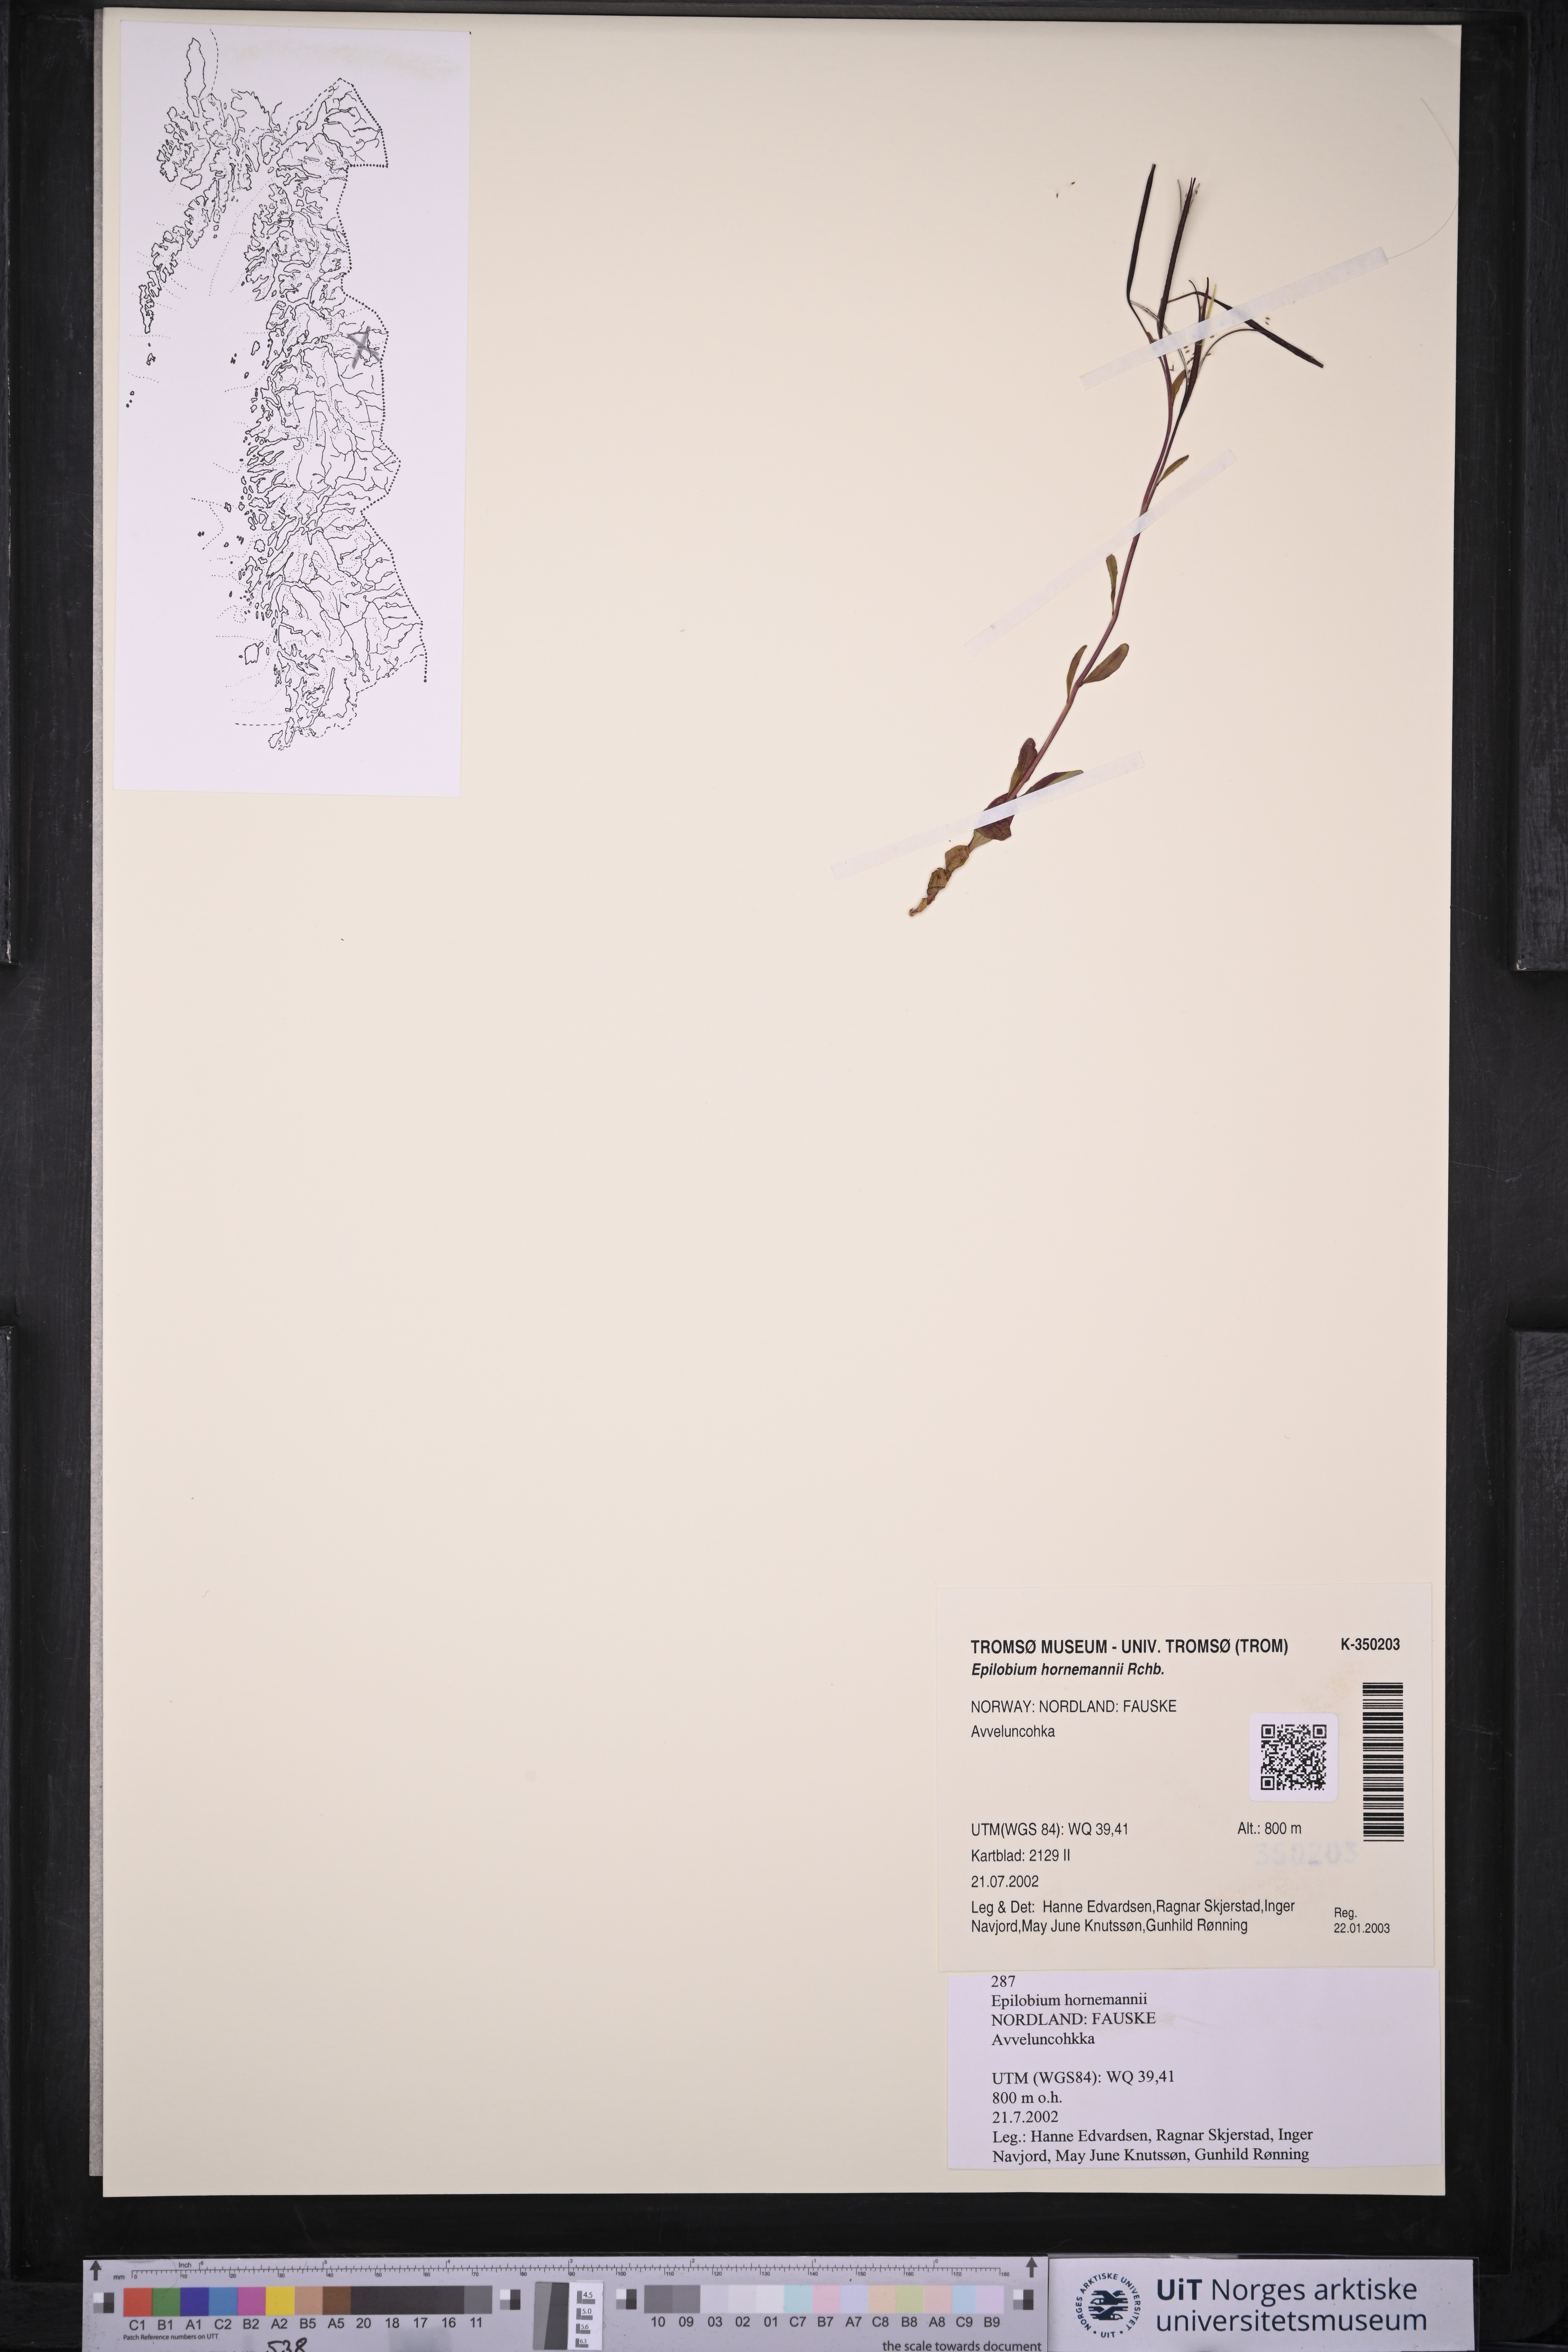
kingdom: Plantae
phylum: Tracheophyta
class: Magnoliopsida
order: Myrtales
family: Onagraceae
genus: Epilobium
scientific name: Epilobium hornemannii
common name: Hornemann's willowherb
